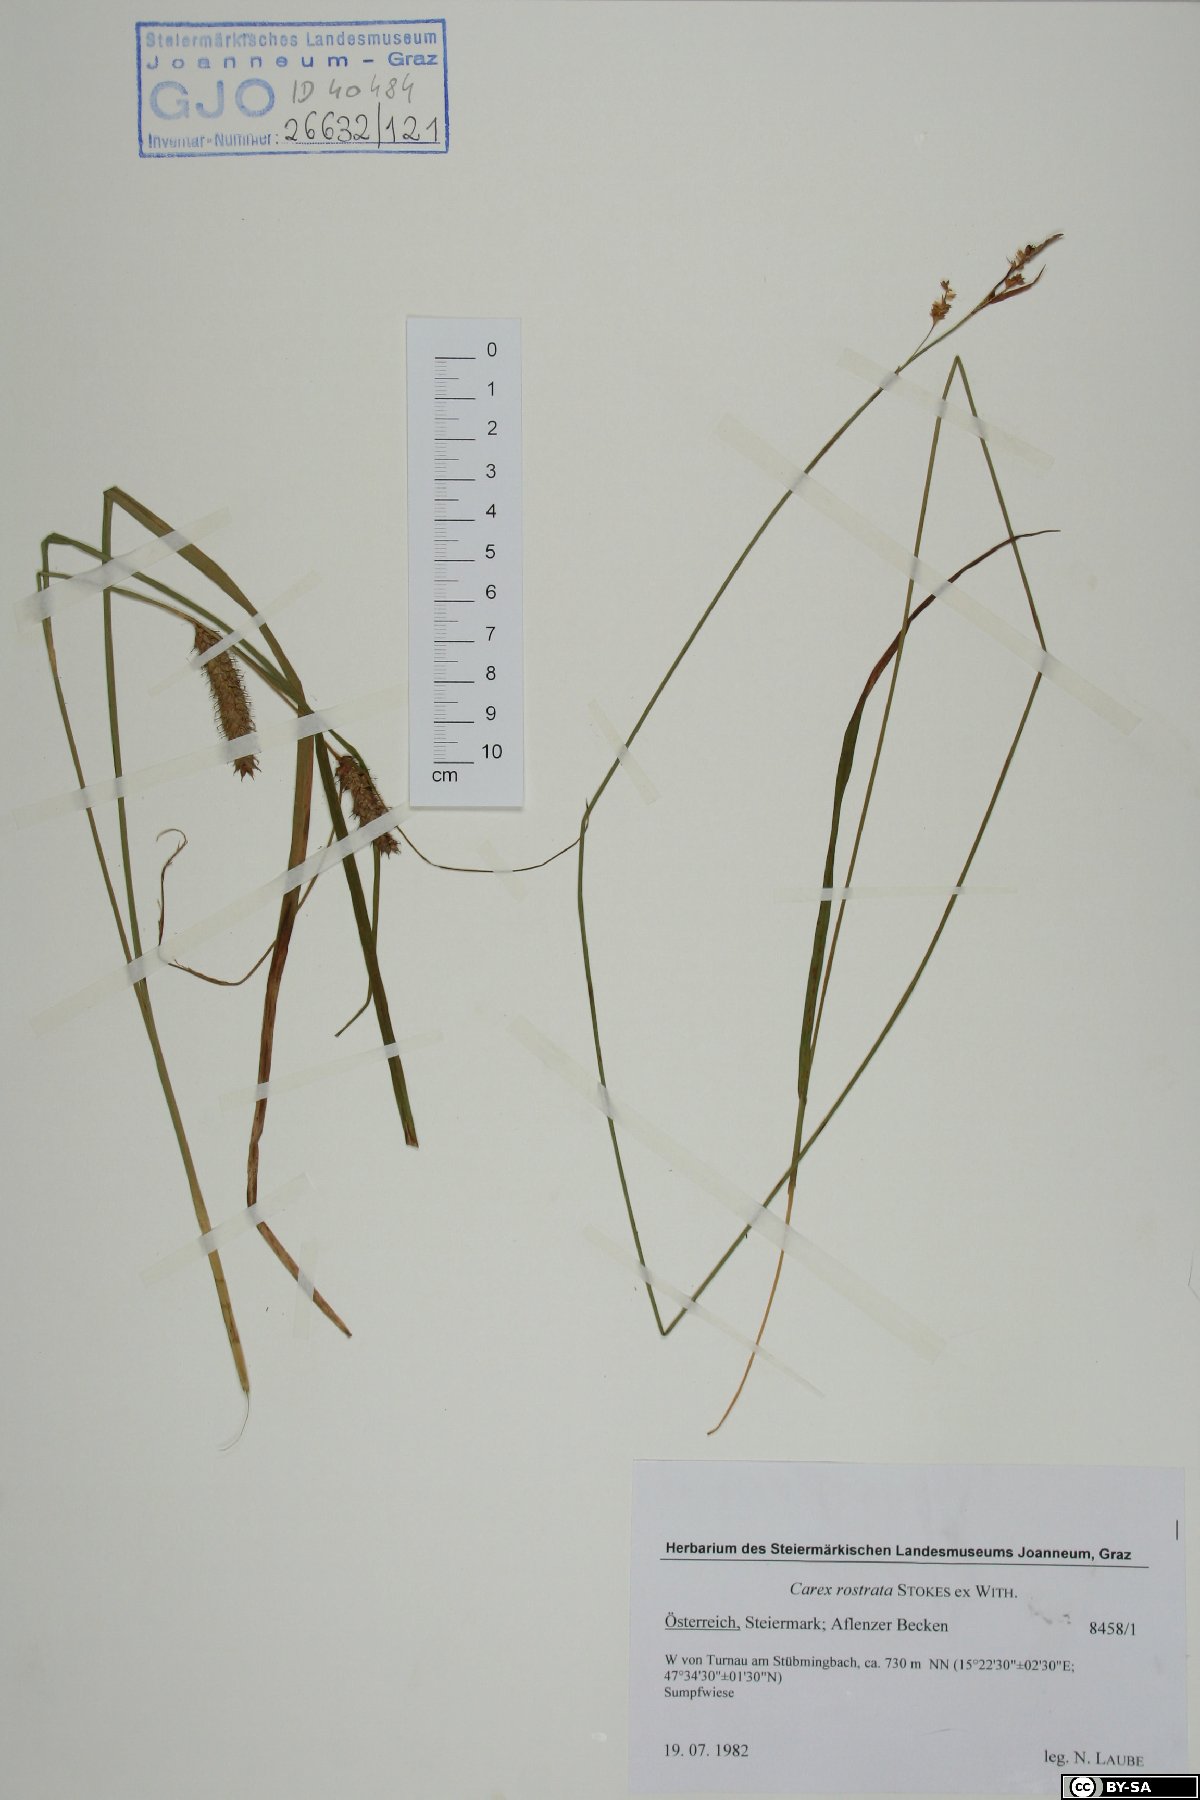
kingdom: Plantae
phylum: Tracheophyta
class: Liliopsida
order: Poales
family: Cyperaceae
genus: Carex
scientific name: Carex rostrata
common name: Bottle sedge
